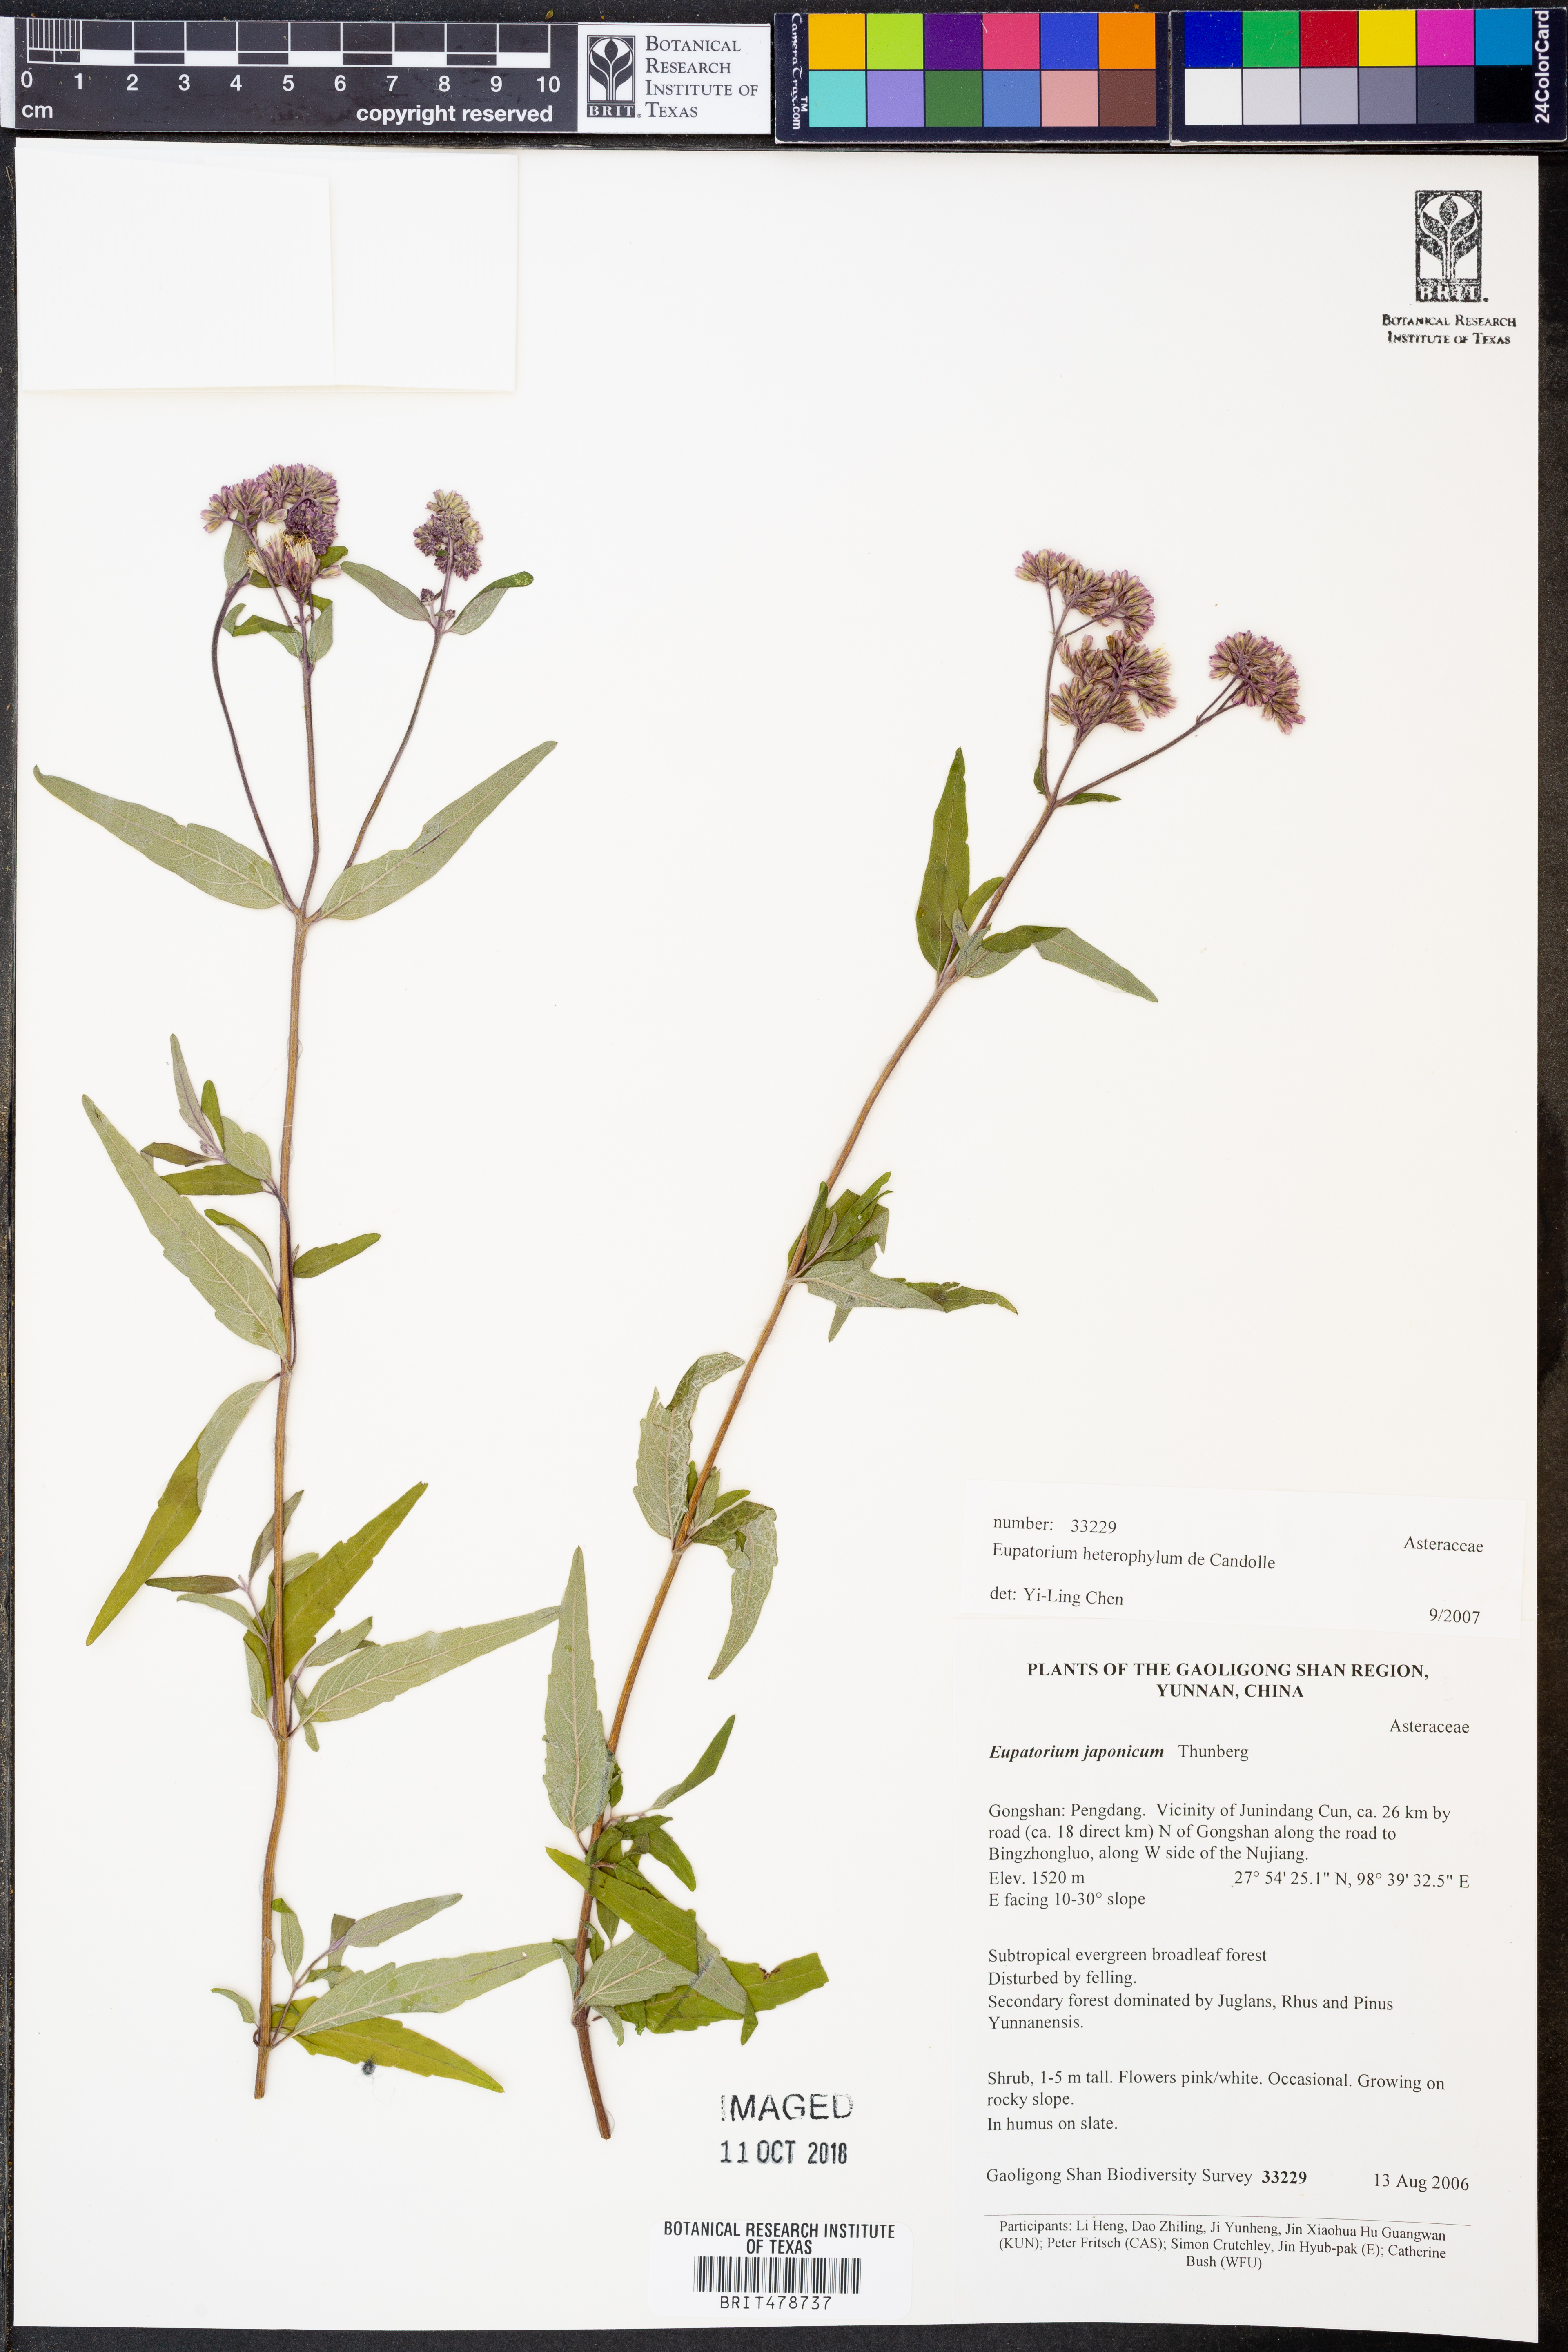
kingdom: Plantae
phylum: Tracheophyta
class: Magnoliopsida
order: Asterales
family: Asteraceae
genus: Eupatorium
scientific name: Eupatorium heterophyllum
